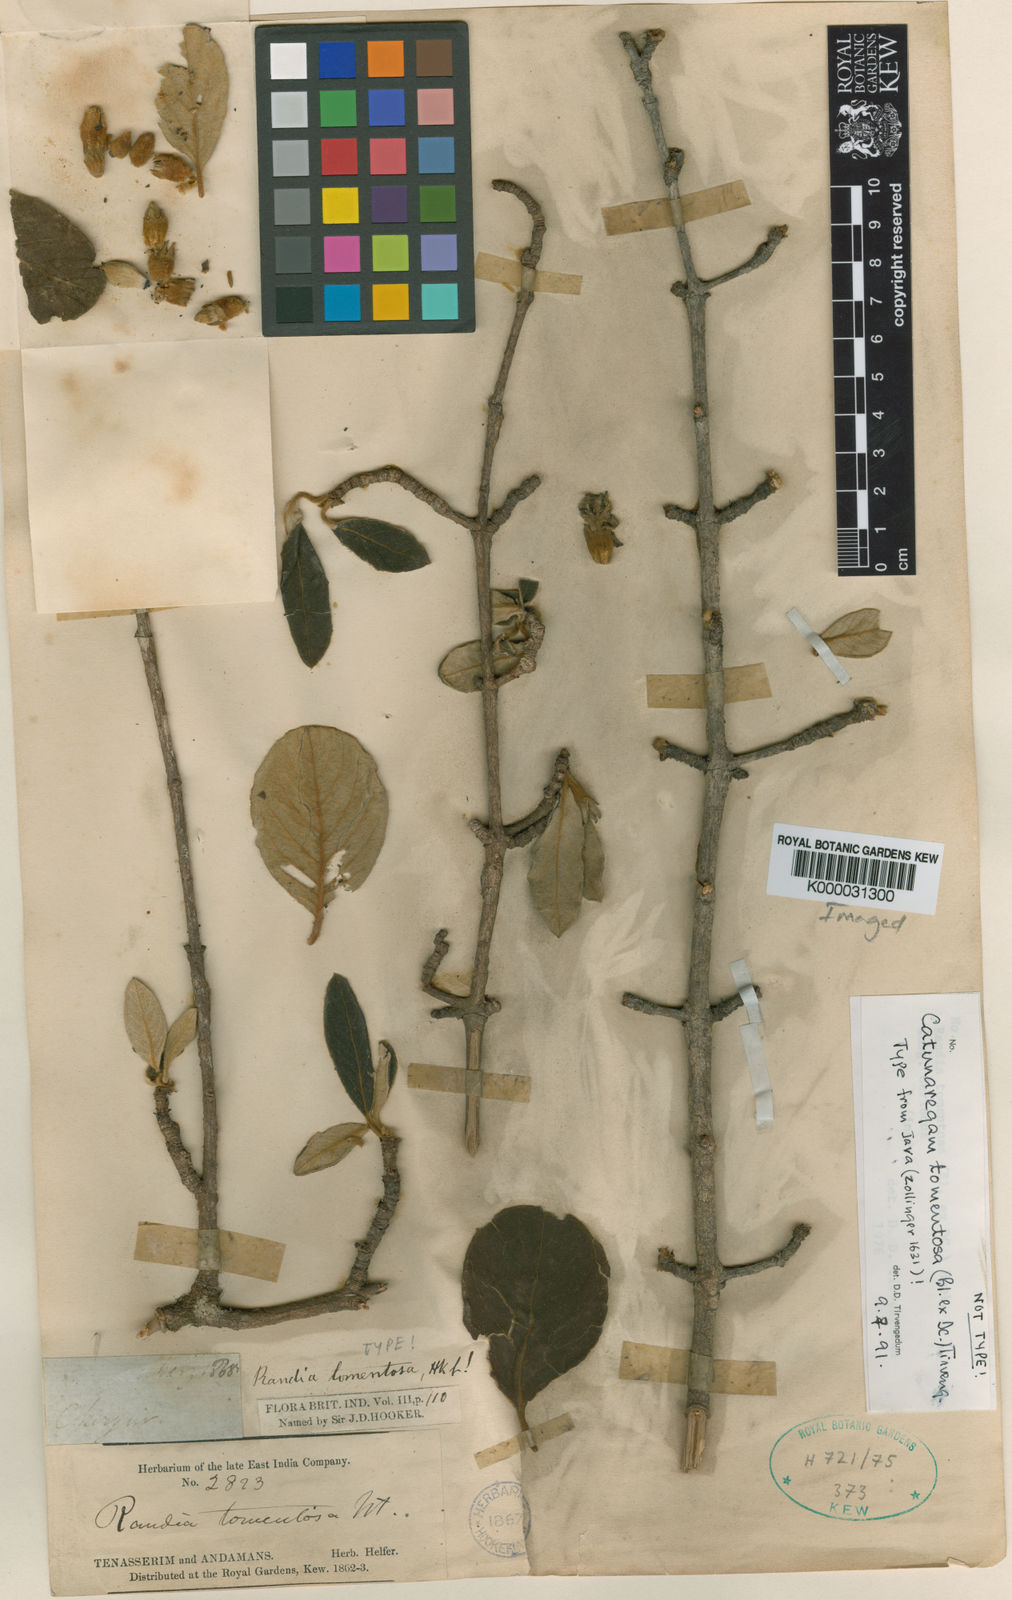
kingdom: Plantae
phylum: Tracheophyta
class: Magnoliopsida
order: Gentianales
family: Rubiaceae
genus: Catunaregam
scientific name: Catunaregam tomentosa
